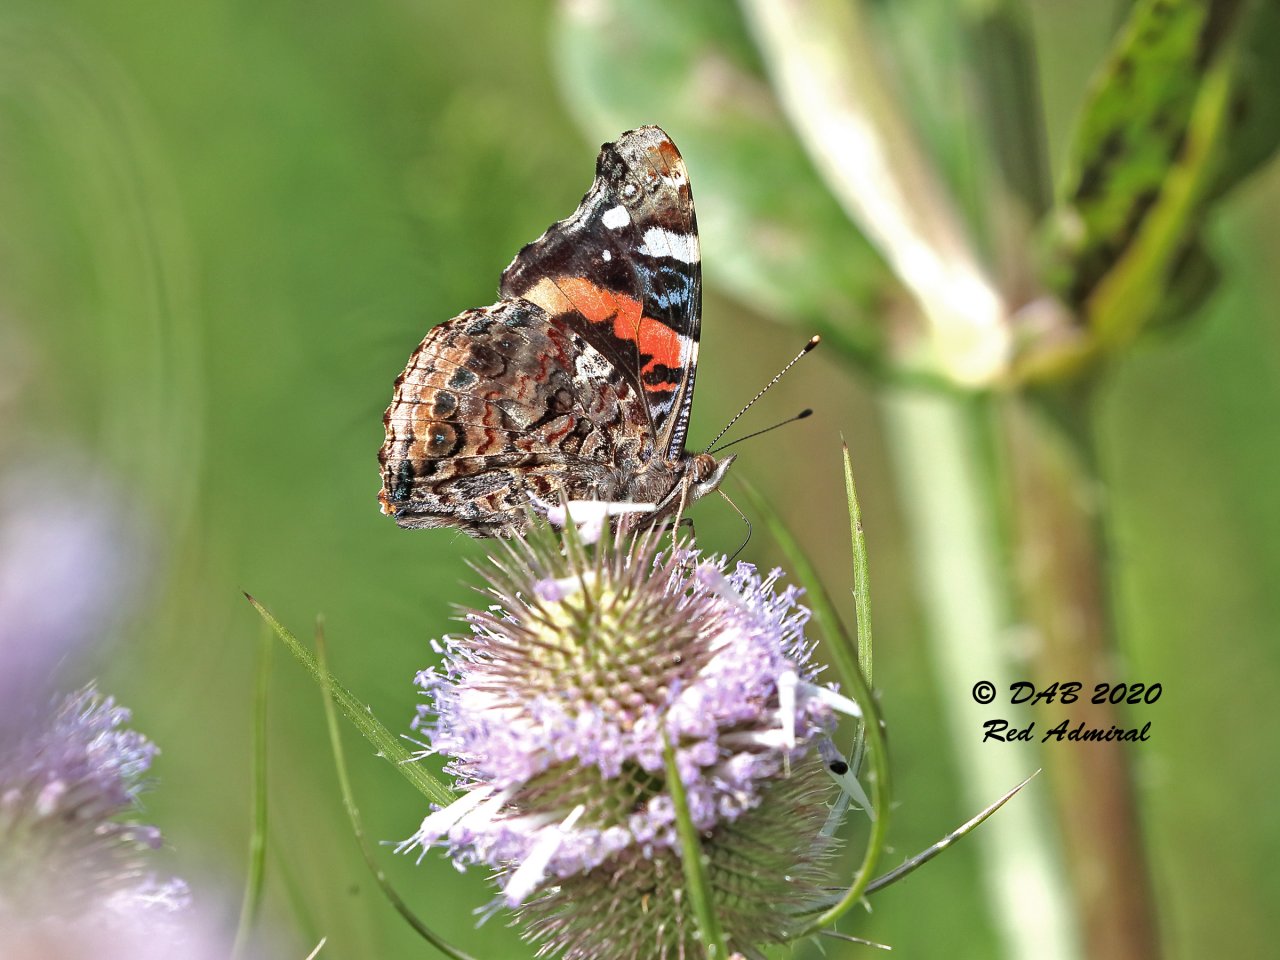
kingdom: Animalia
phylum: Arthropoda
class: Insecta
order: Lepidoptera
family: Nymphalidae
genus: Vanessa
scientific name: Vanessa atalanta
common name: Red Admiral
